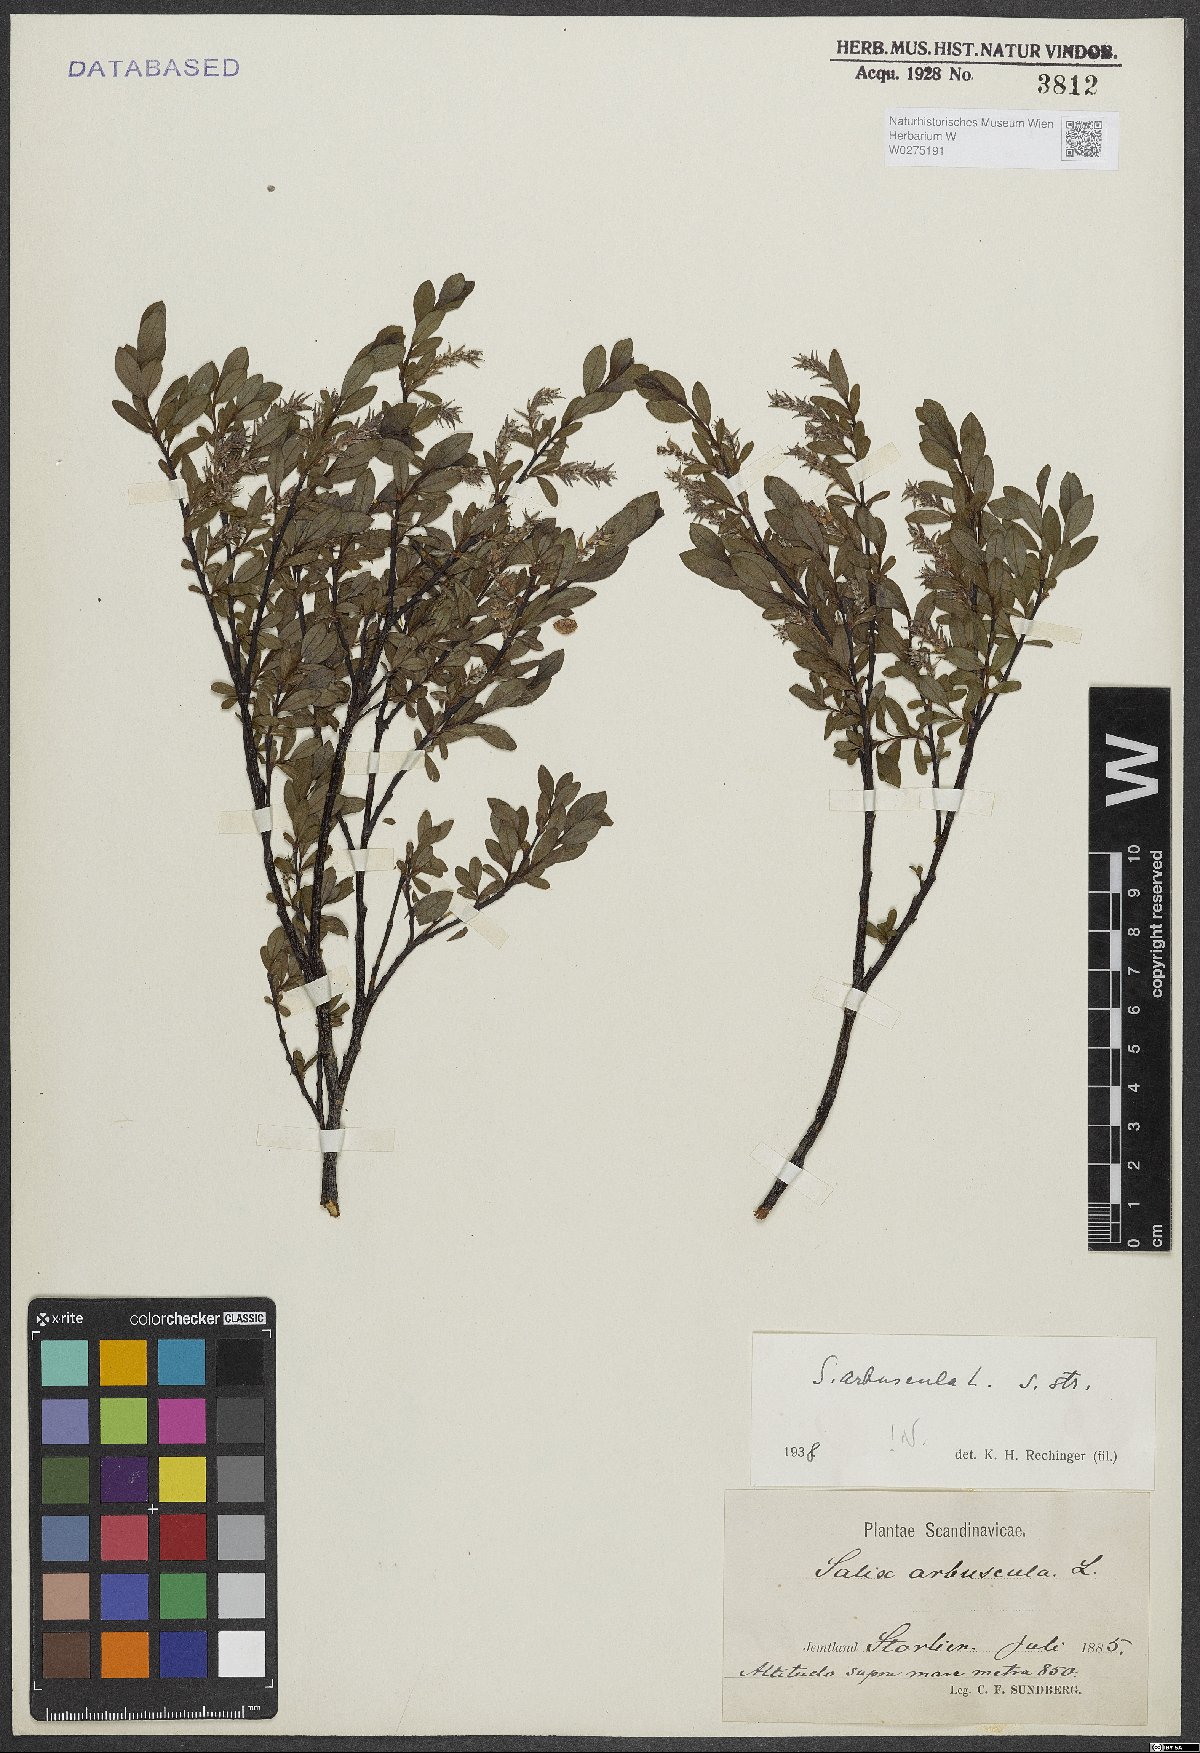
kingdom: Plantae
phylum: Tracheophyta
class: Magnoliopsida
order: Malpighiales
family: Salicaceae
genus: Salix
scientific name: Salix arbuscula
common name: Mountain willow
